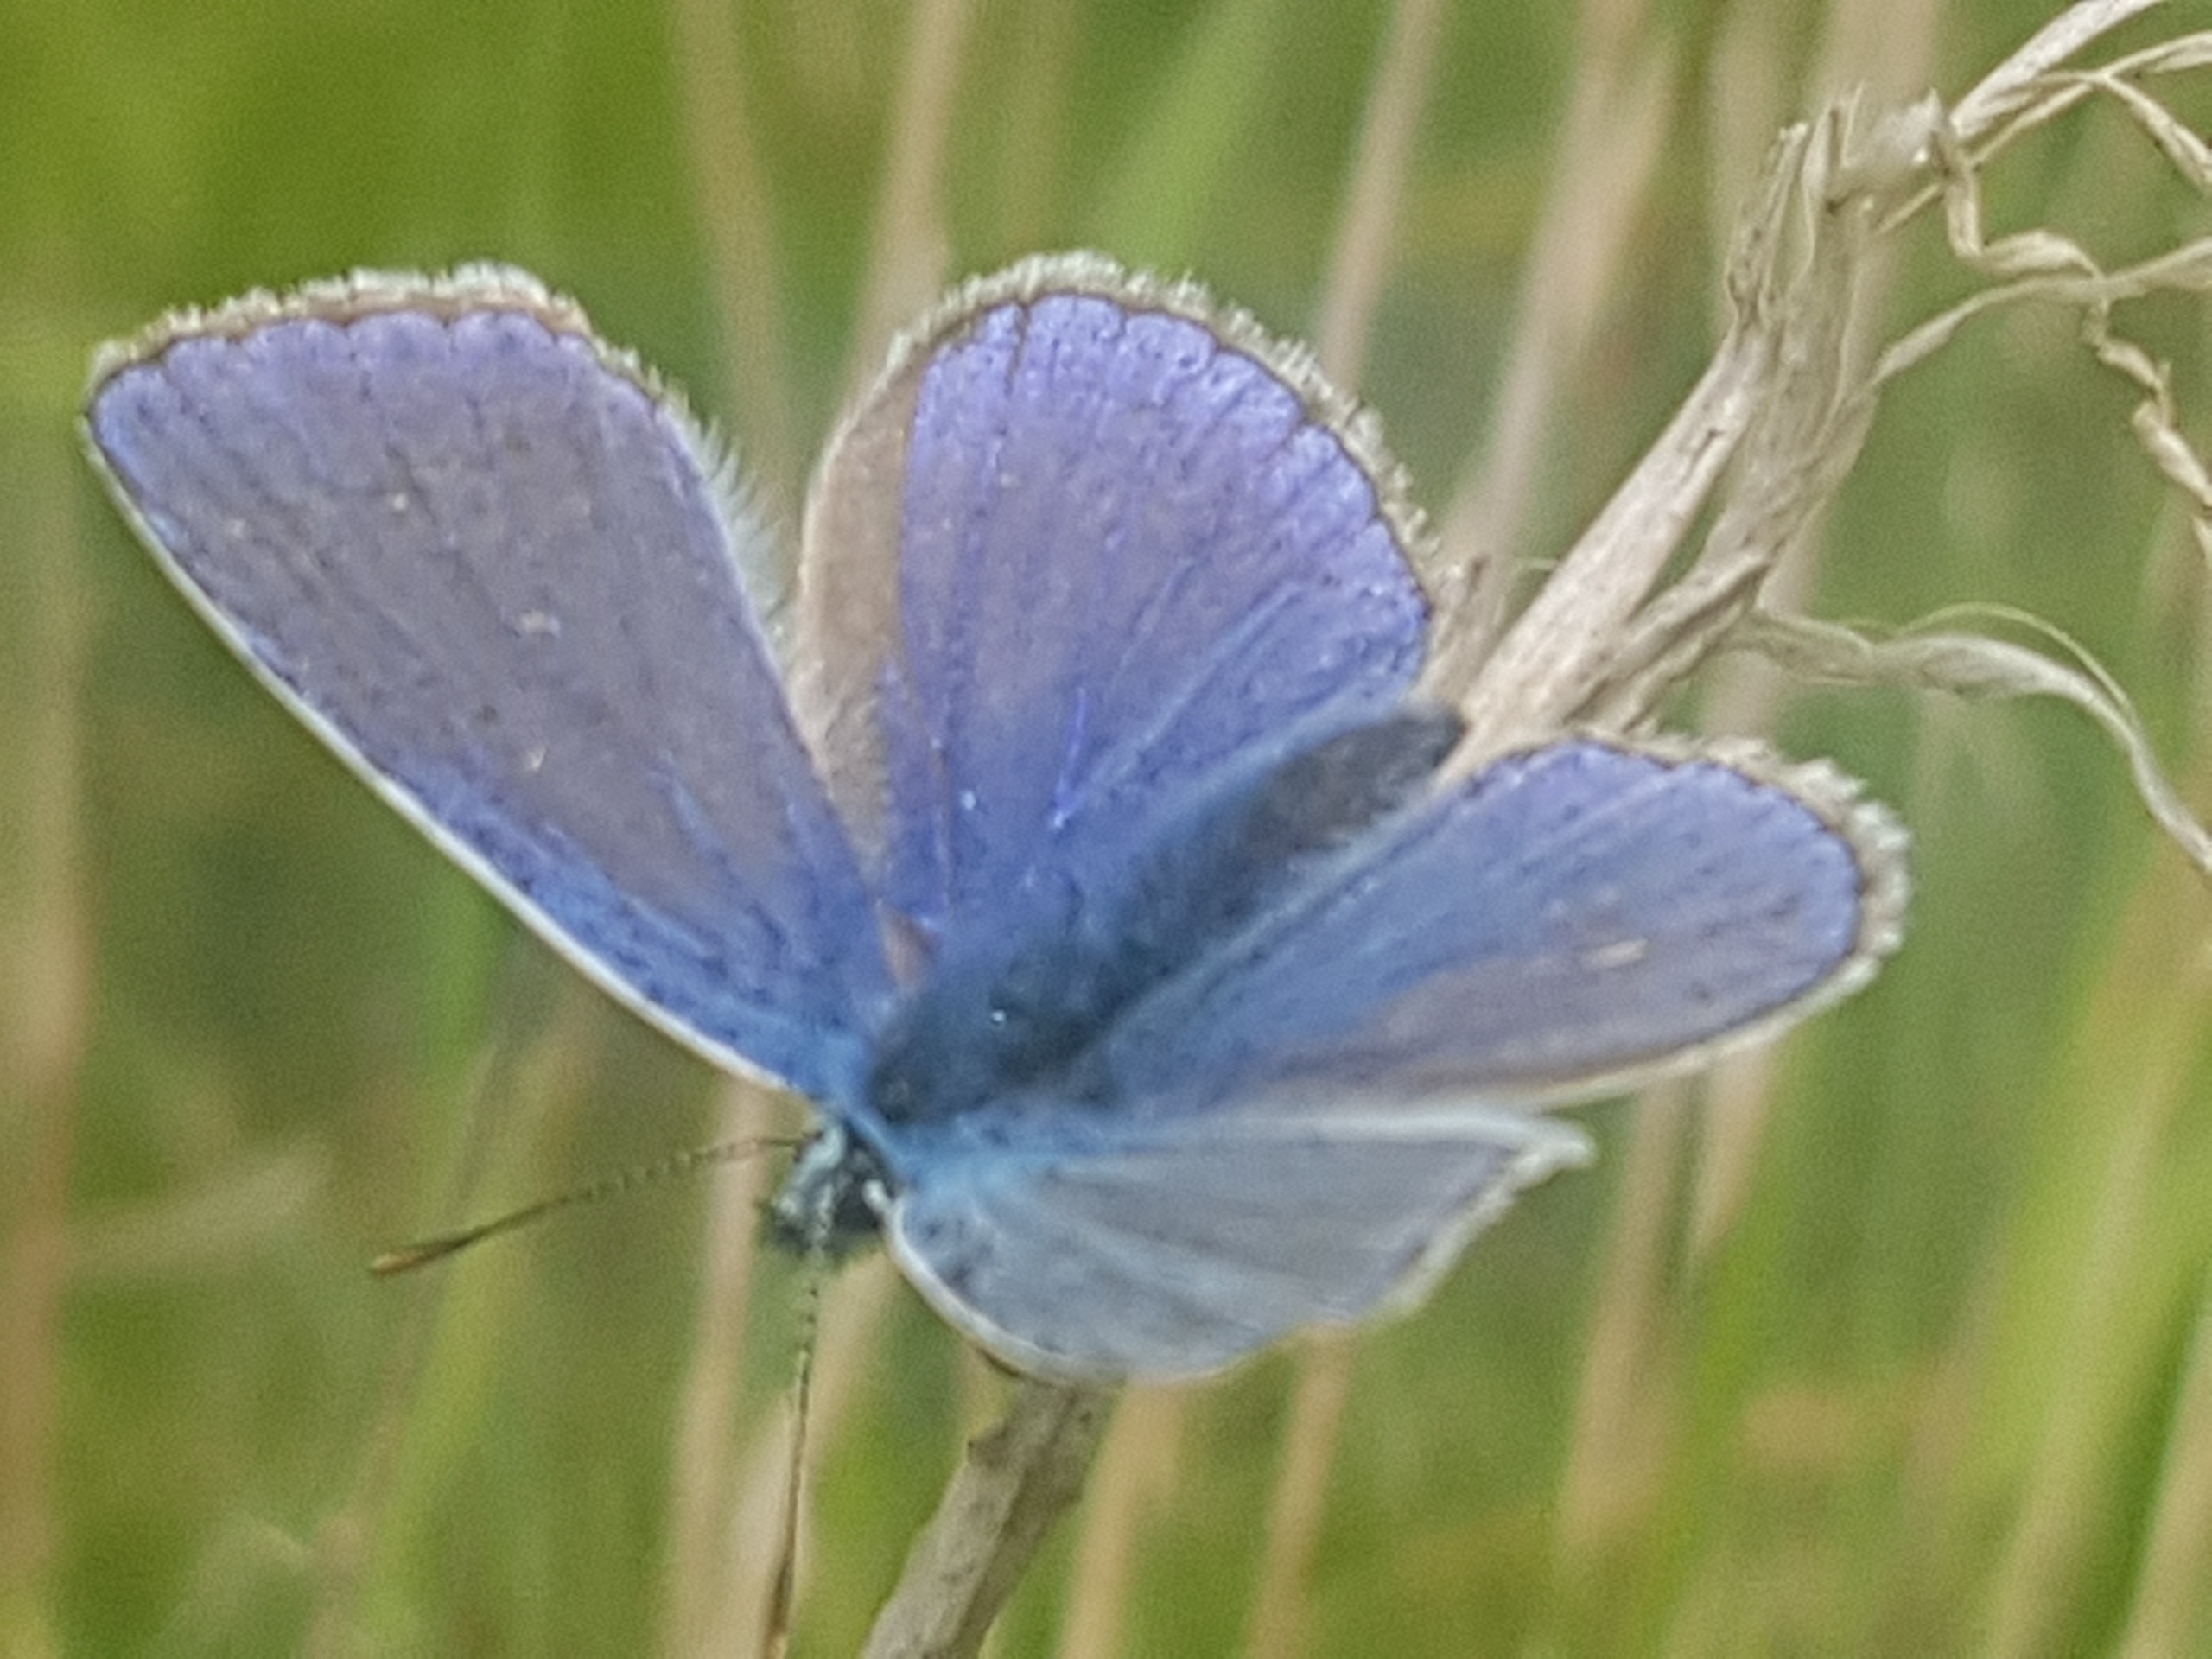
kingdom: Animalia
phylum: Arthropoda
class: Insecta
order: Lepidoptera
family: Lycaenidae
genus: Polyommatus
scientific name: Polyommatus icarus
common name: Almindelig blåfugl
